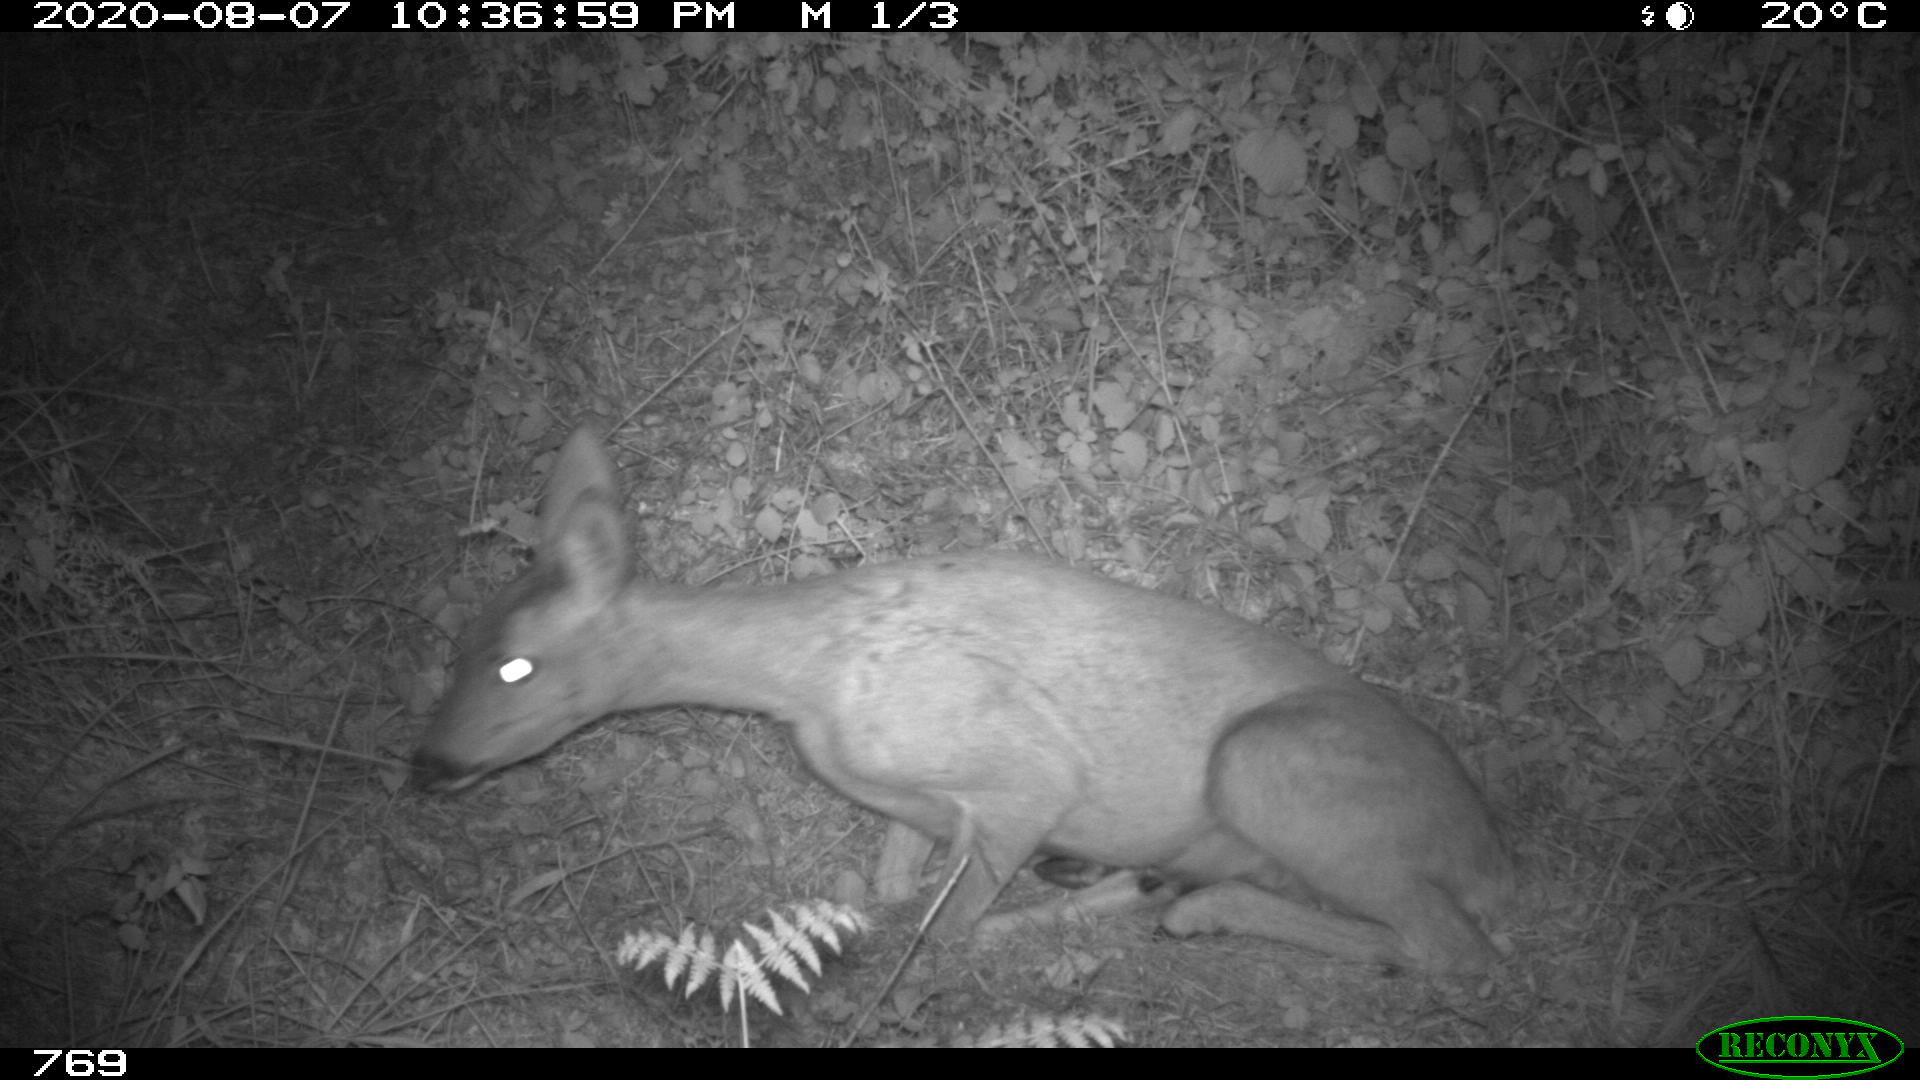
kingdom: Animalia
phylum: Chordata
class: Mammalia
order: Artiodactyla
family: Cervidae
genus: Capreolus
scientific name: Capreolus capreolus
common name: Western roe deer
